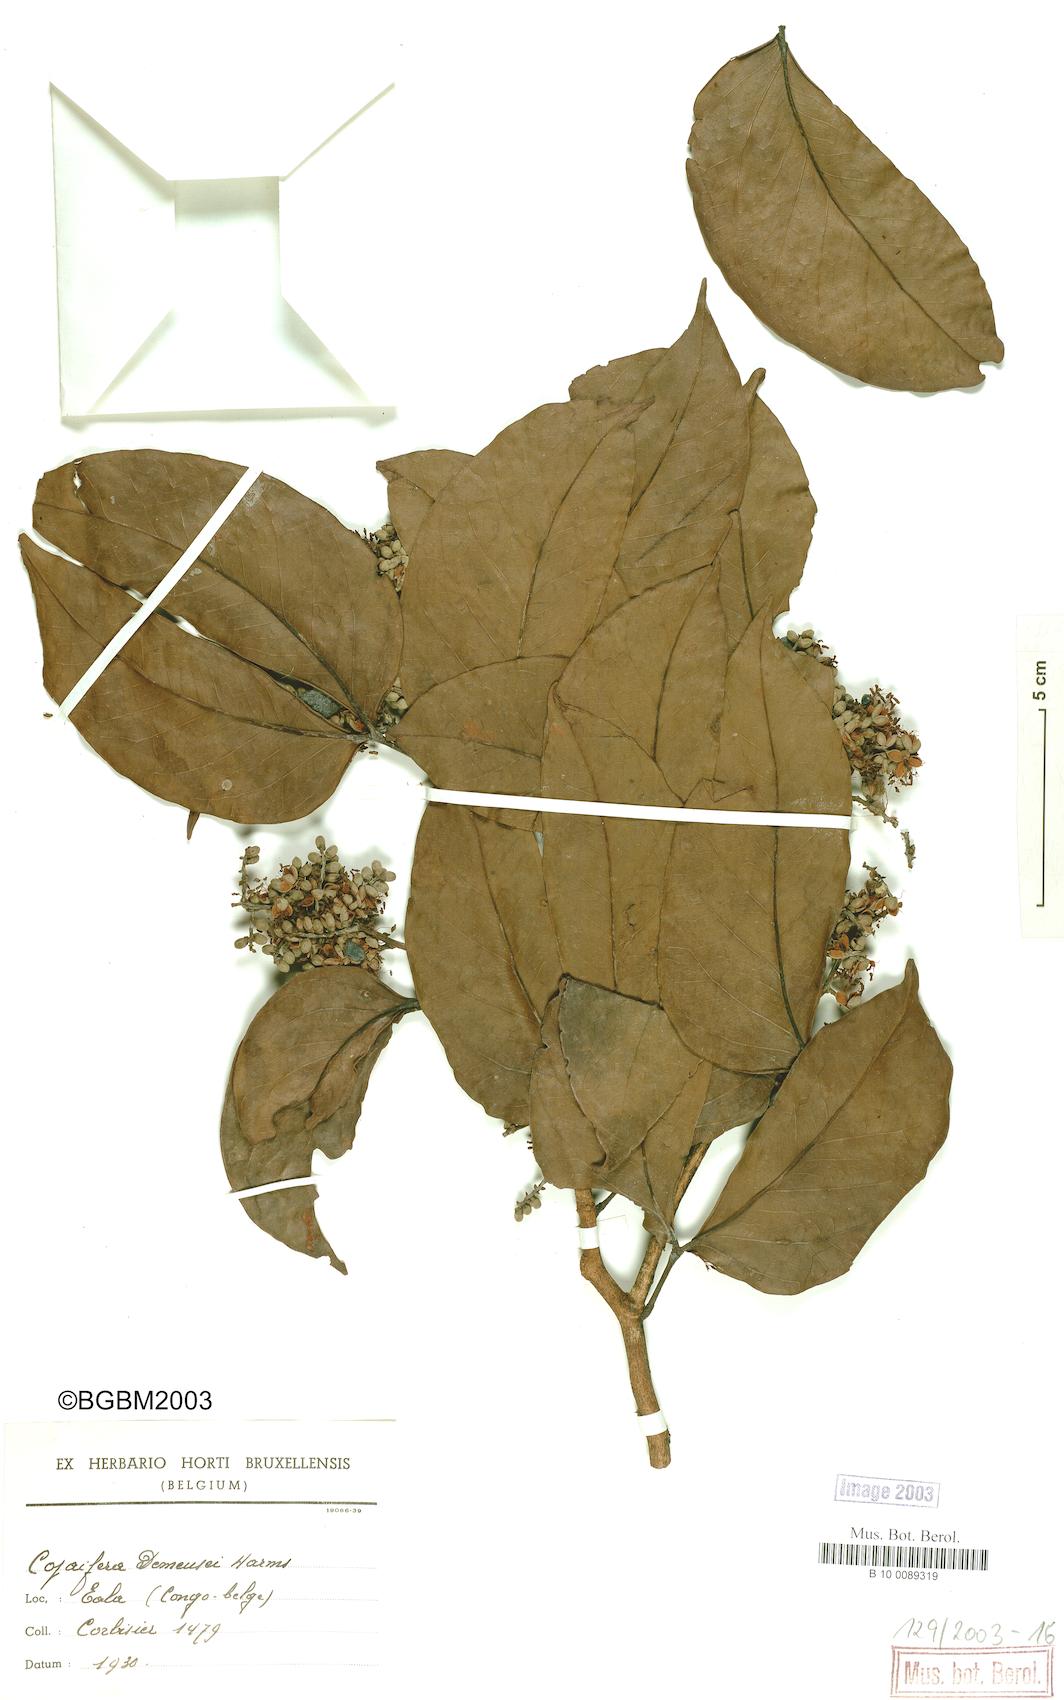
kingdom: Plantae
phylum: Tracheophyta
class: Magnoliopsida
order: Fabales
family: Fabaceae
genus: Guibourtia
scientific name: Guibourtia demeusei
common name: African rosewood
